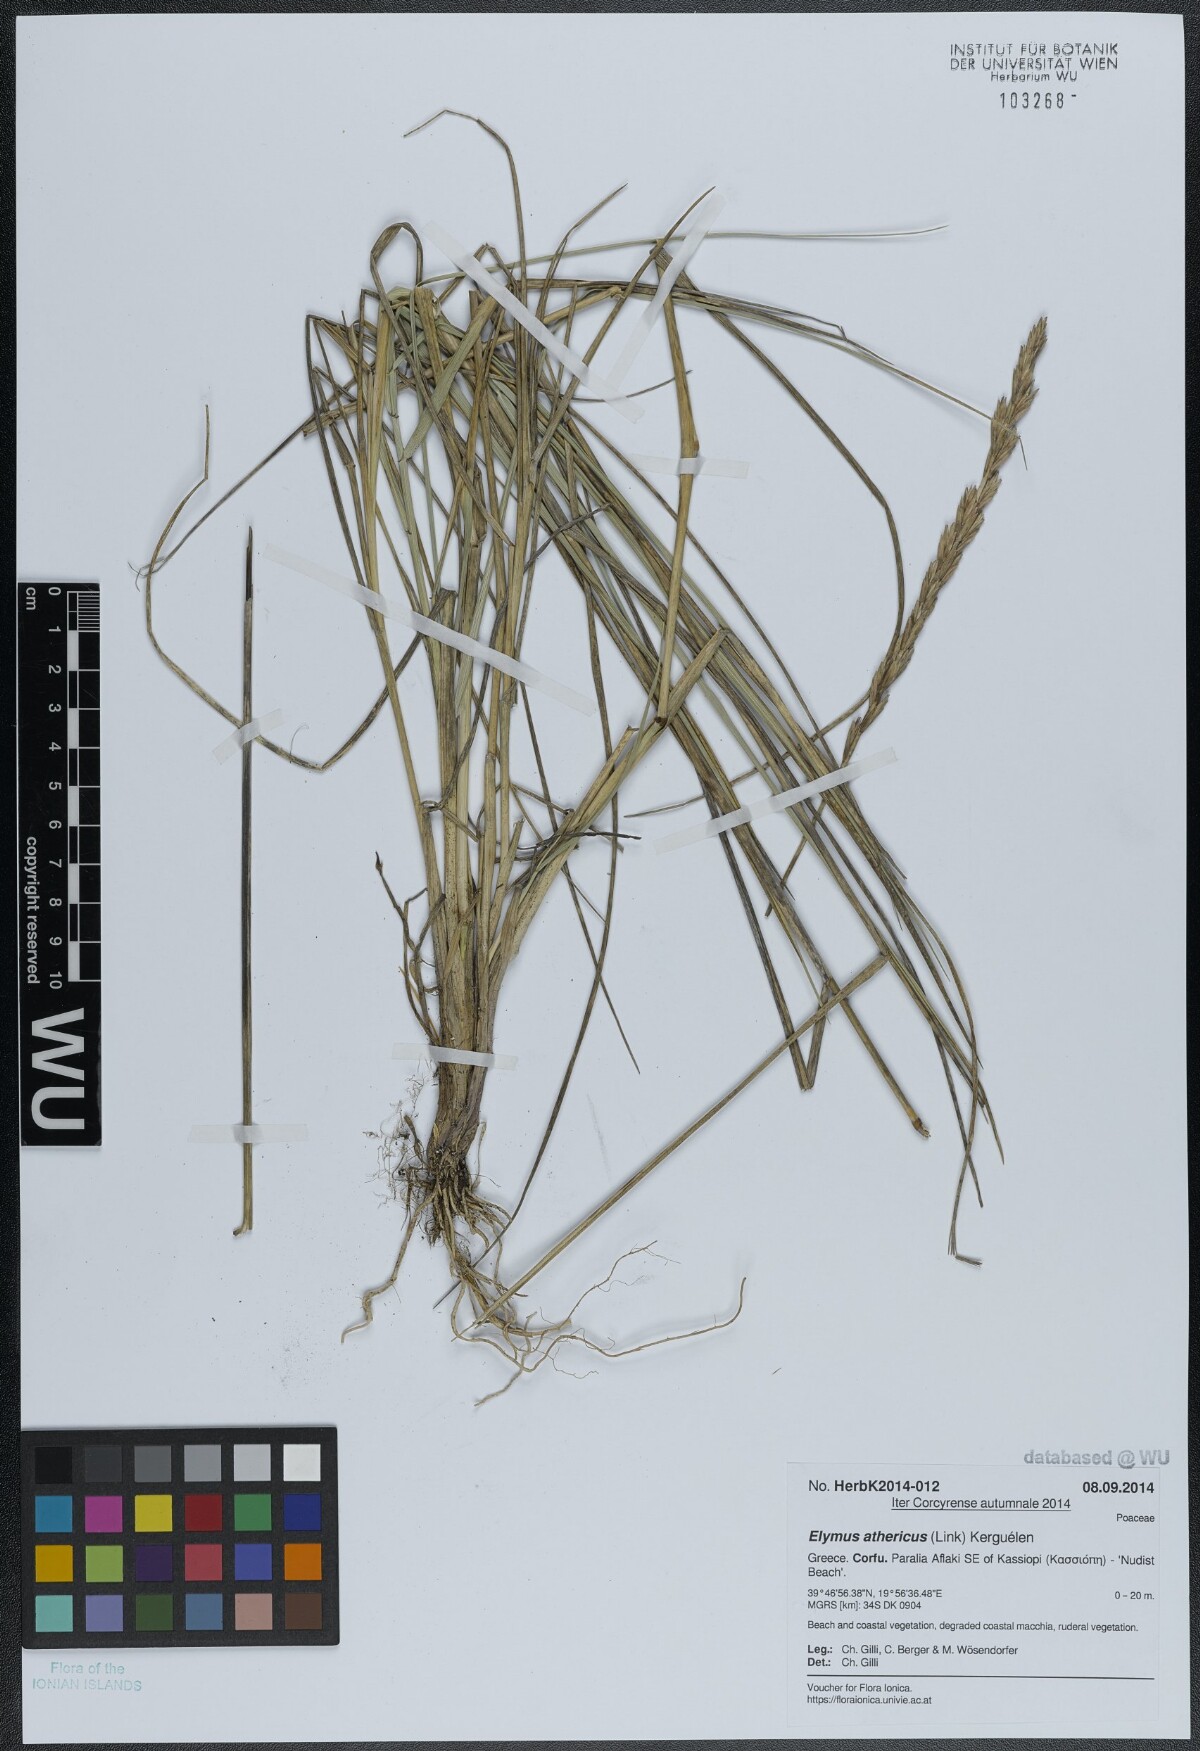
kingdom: Plantae
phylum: Tracheophyta
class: Liliopsida
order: Poales
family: Poaceae
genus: Elymus
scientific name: Elymus athericus
